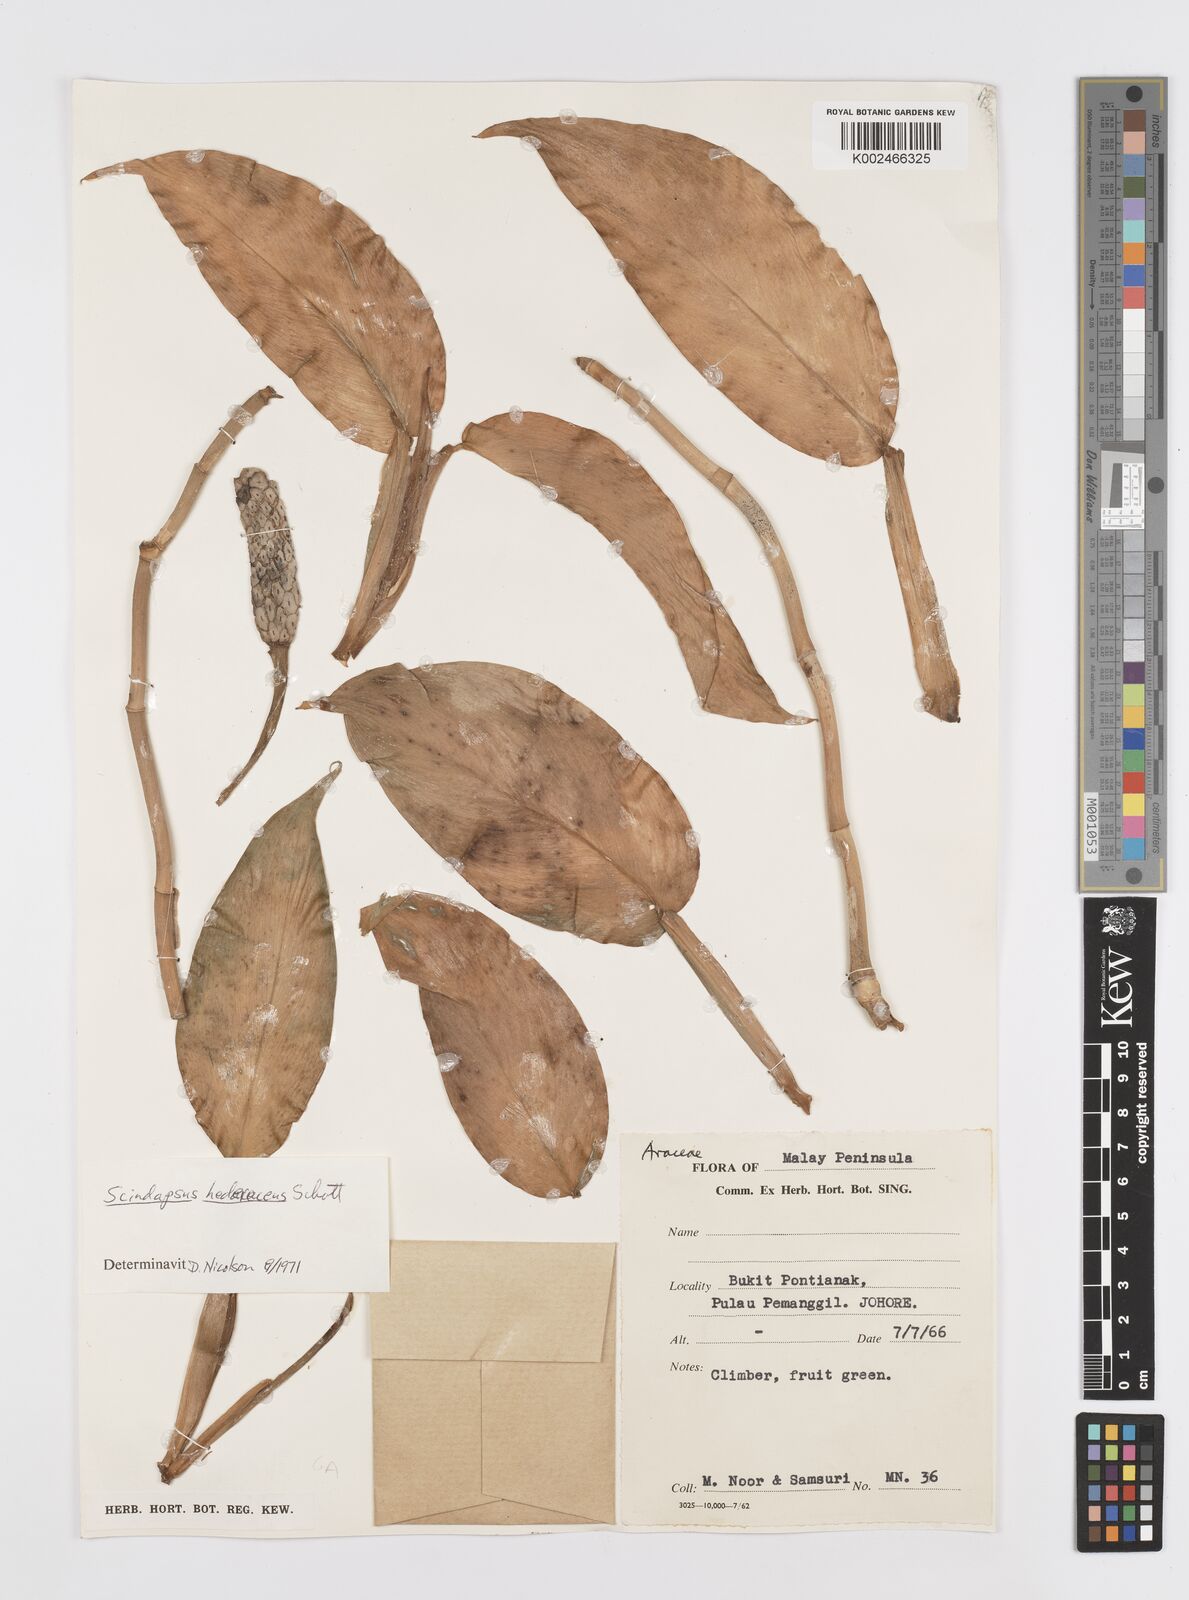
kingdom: Plantae
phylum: Tracheophyta
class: Liliopsida
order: Alismatales
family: Araceae
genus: Scindapsus
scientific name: Scindapsus hederaceus
